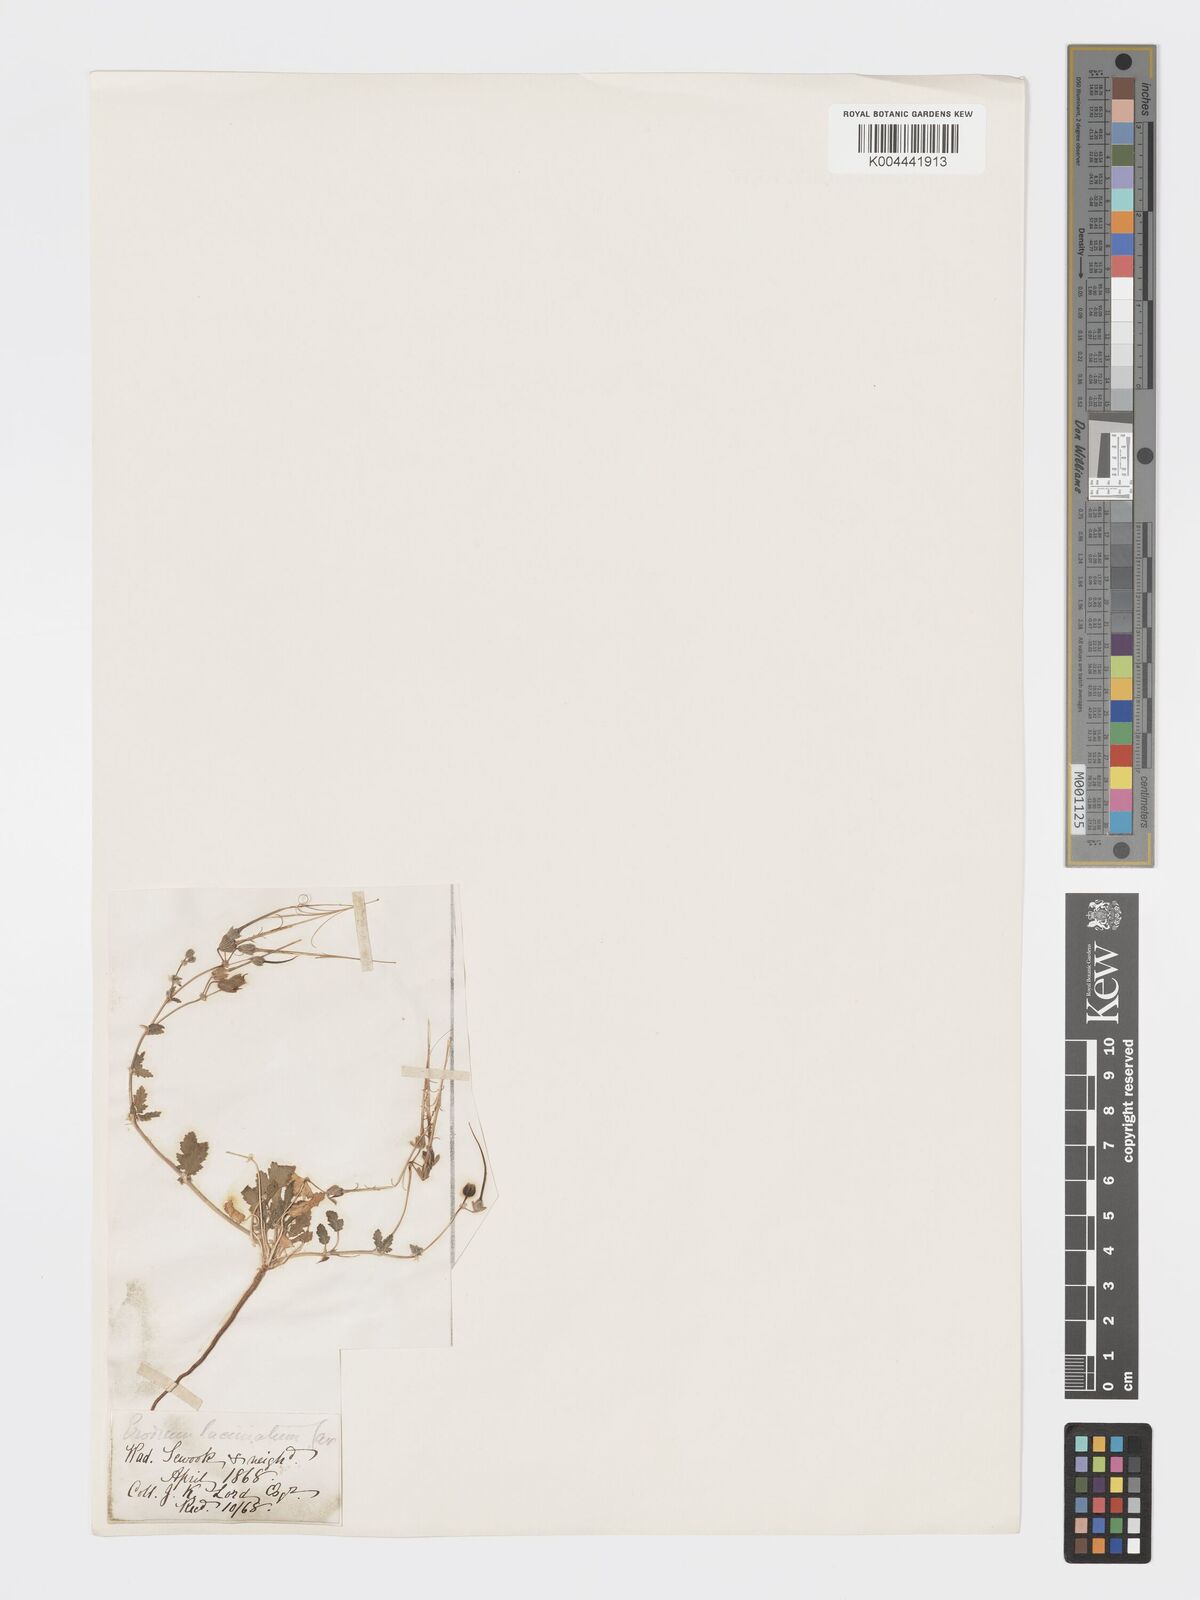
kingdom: Plantae
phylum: Tracheophyta
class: Magnoliopsida
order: Geraniales
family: Geraniaceae
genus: Erodium
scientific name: Erodium laciniatum
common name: Cutleaf stork's bill
